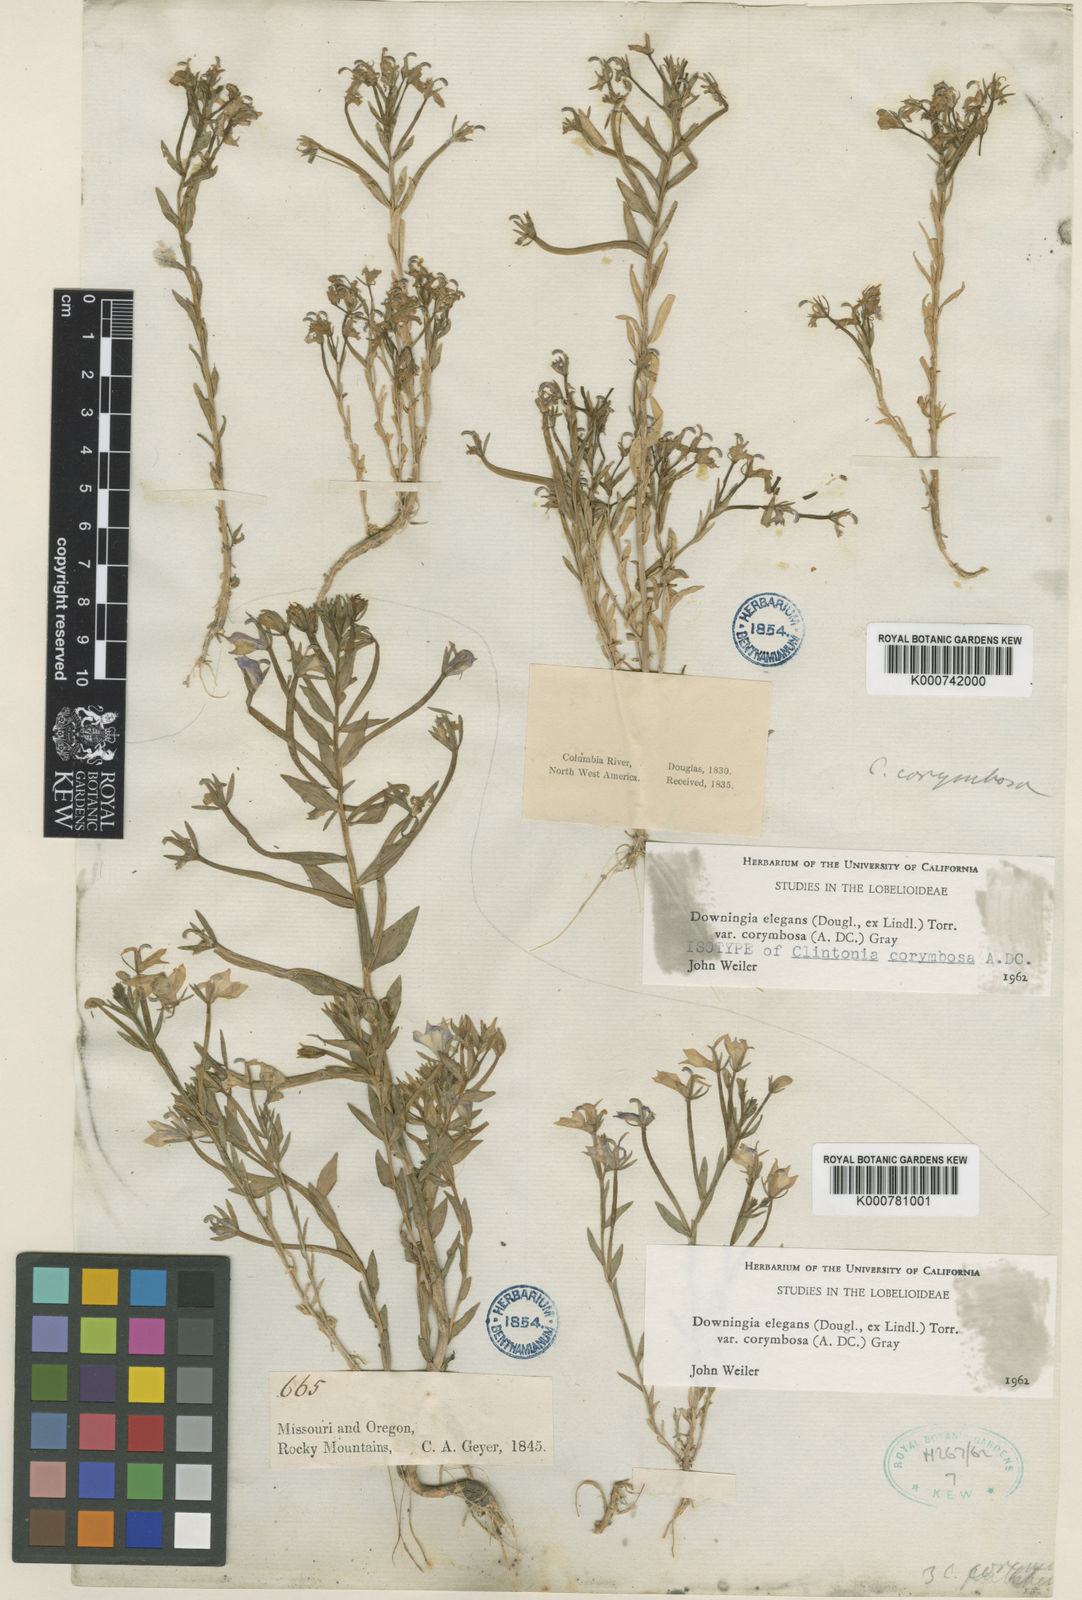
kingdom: Plantae
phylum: Tracheophyta
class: Magnoliopsida
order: Asterales
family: Campanulaceae
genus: Downingia
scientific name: Downingia elegans
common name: Californian lobelia
